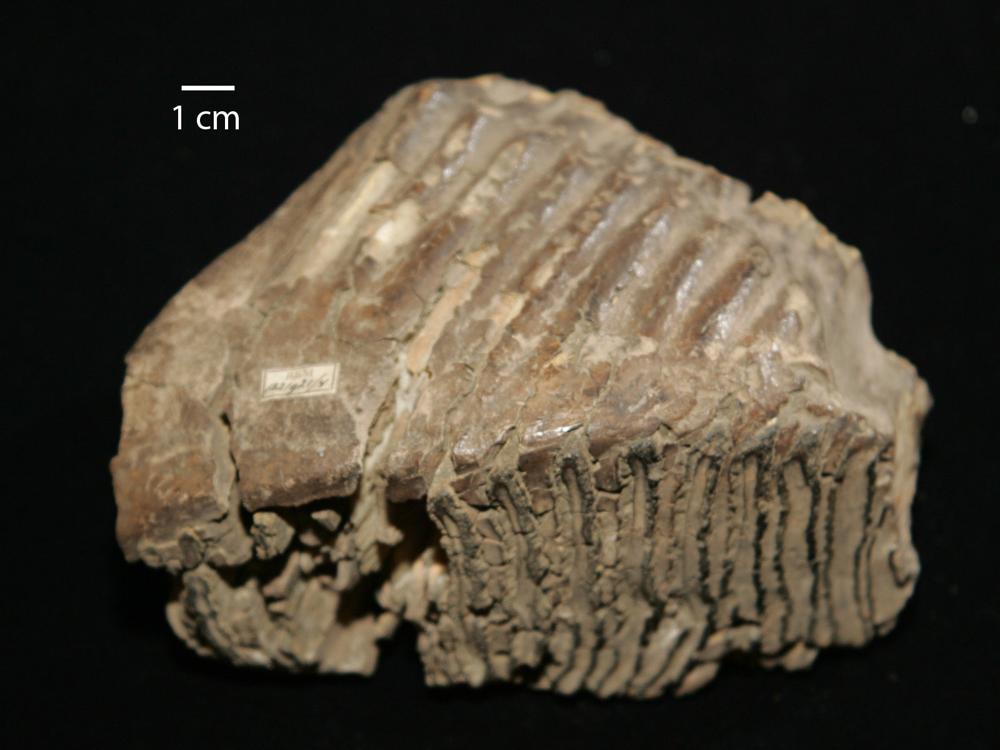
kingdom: Animalia
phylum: Chordata
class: Mammalia
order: Proboscidea
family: Elephantidae
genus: Mammuthus
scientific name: Mammuthus primigenius
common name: Wooly mammoth
